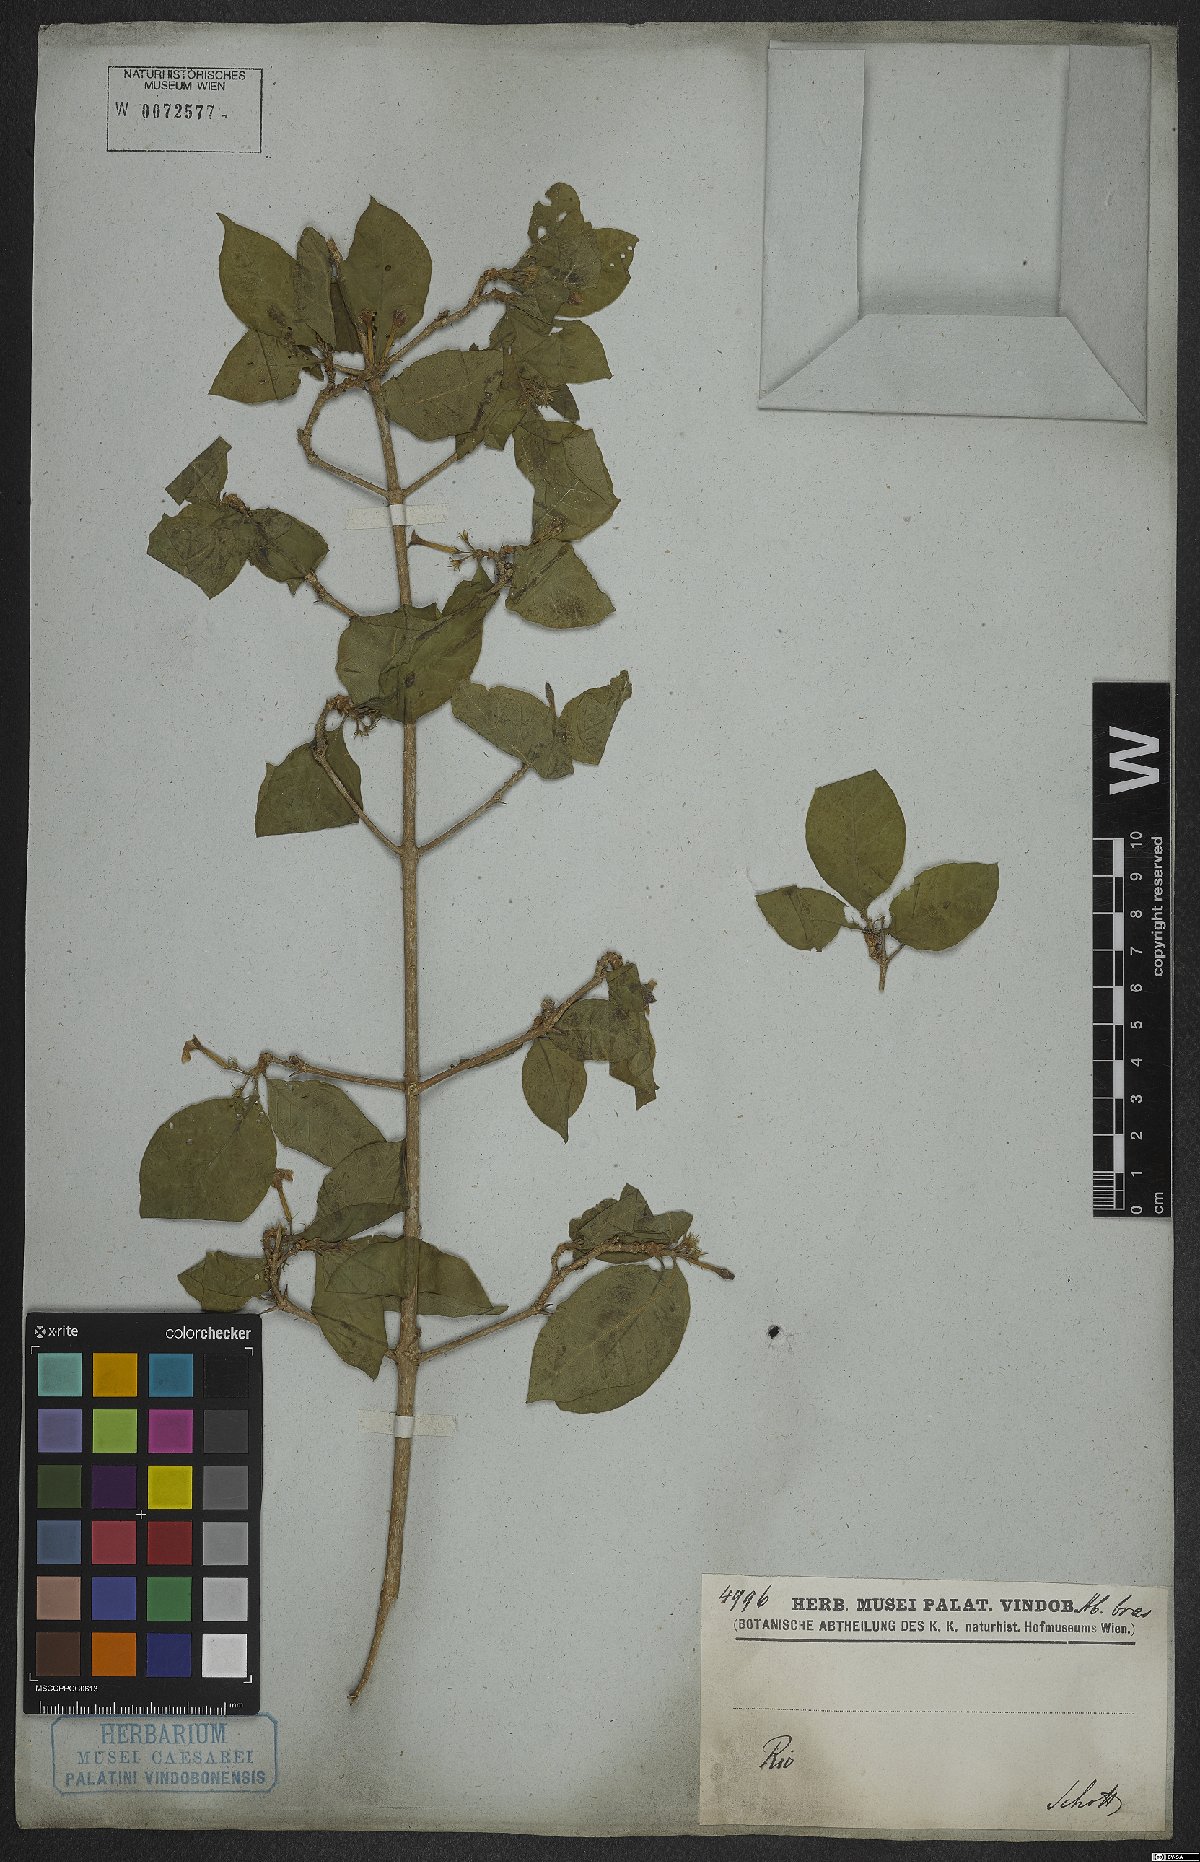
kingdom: Plantae
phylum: Tracheophyta
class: Magnoliopsida
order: Gentianales
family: Rubiaceae
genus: Randia
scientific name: Randia
